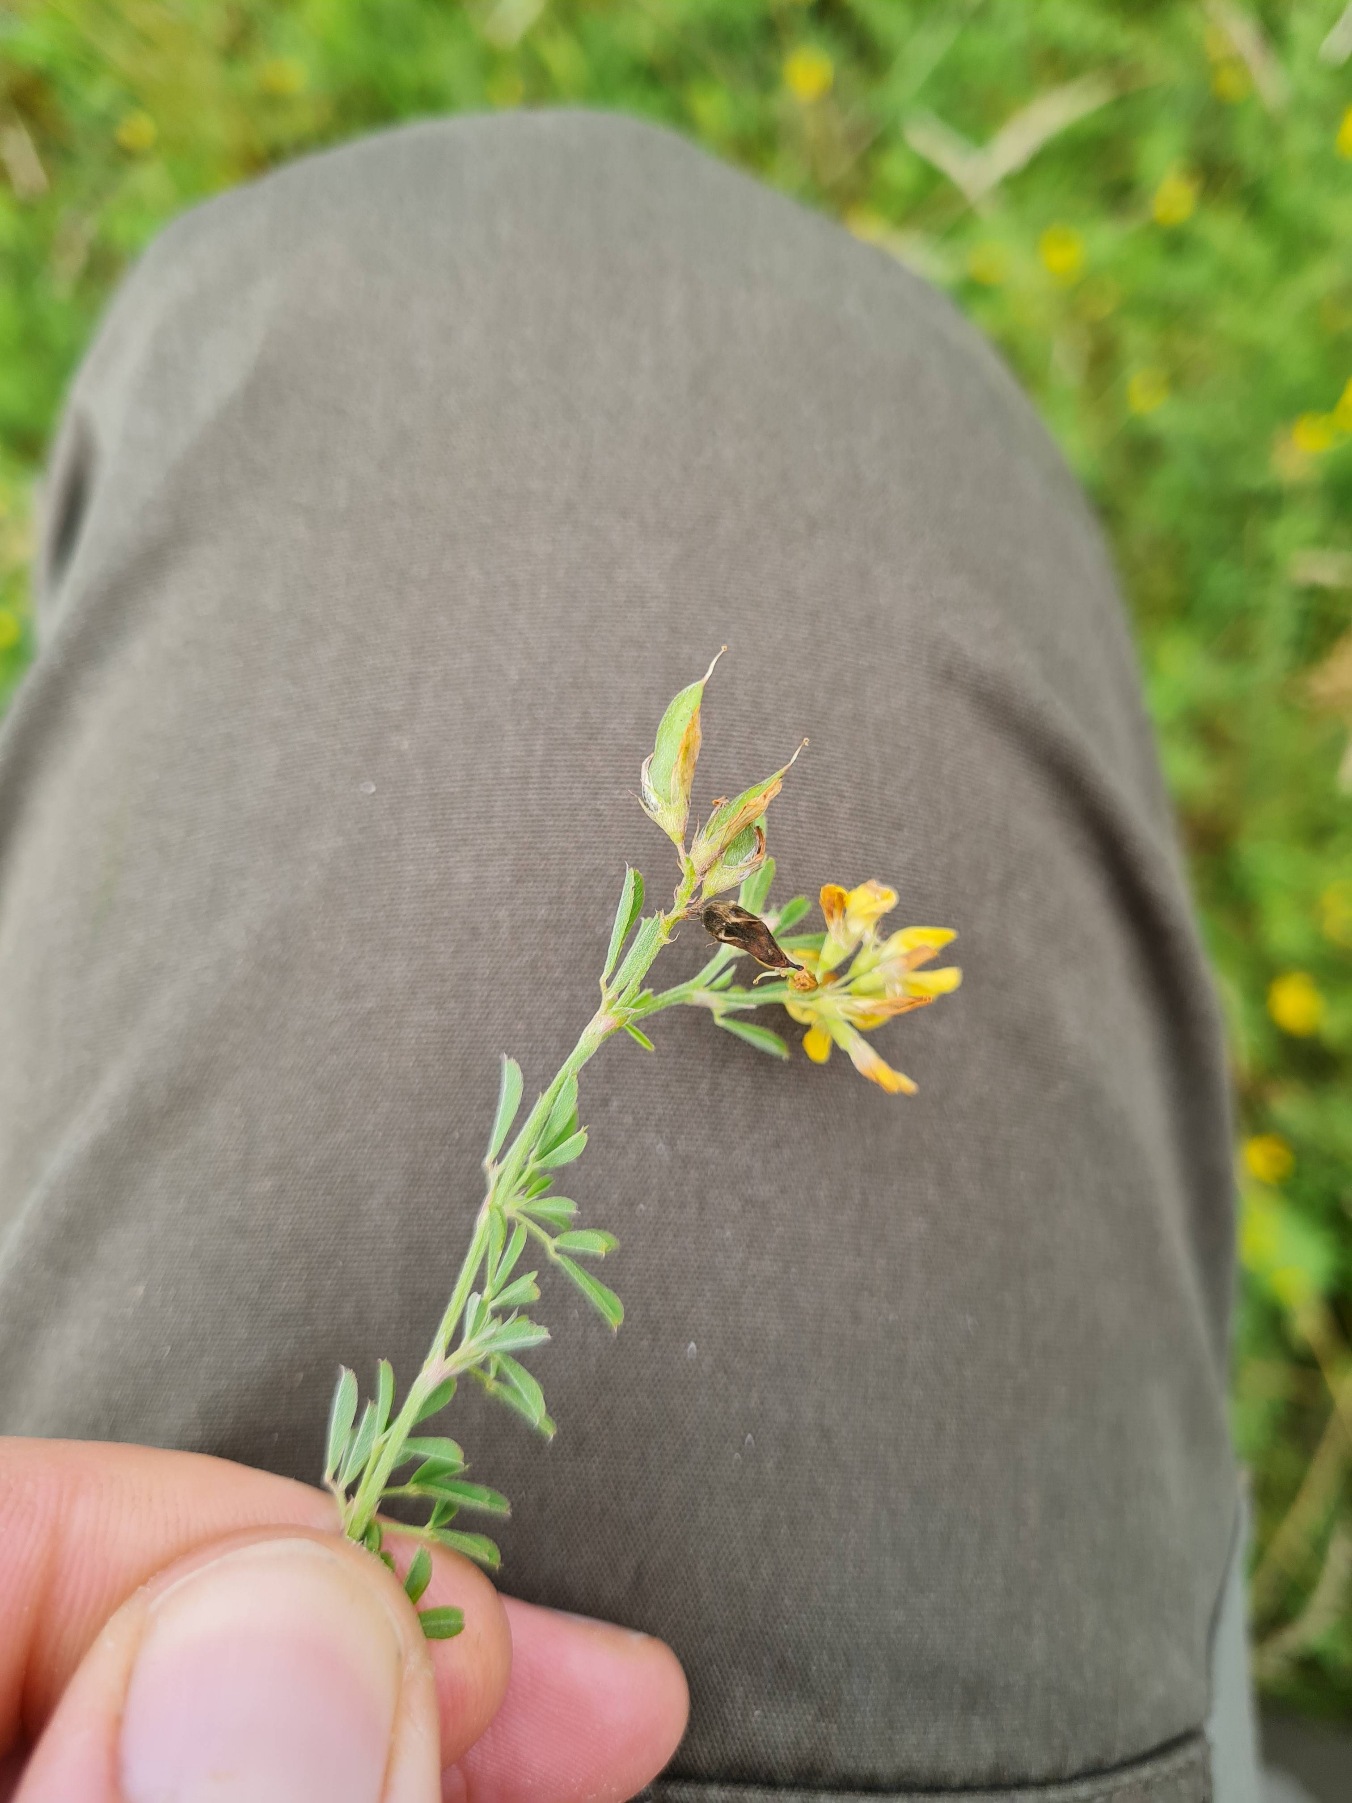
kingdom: Plantae
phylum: Tracheophyta
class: Magnoliopsida
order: Fabales
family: Fabaceae
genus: Medicago
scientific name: Medicago falcata
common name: Segl-sneglebælg
